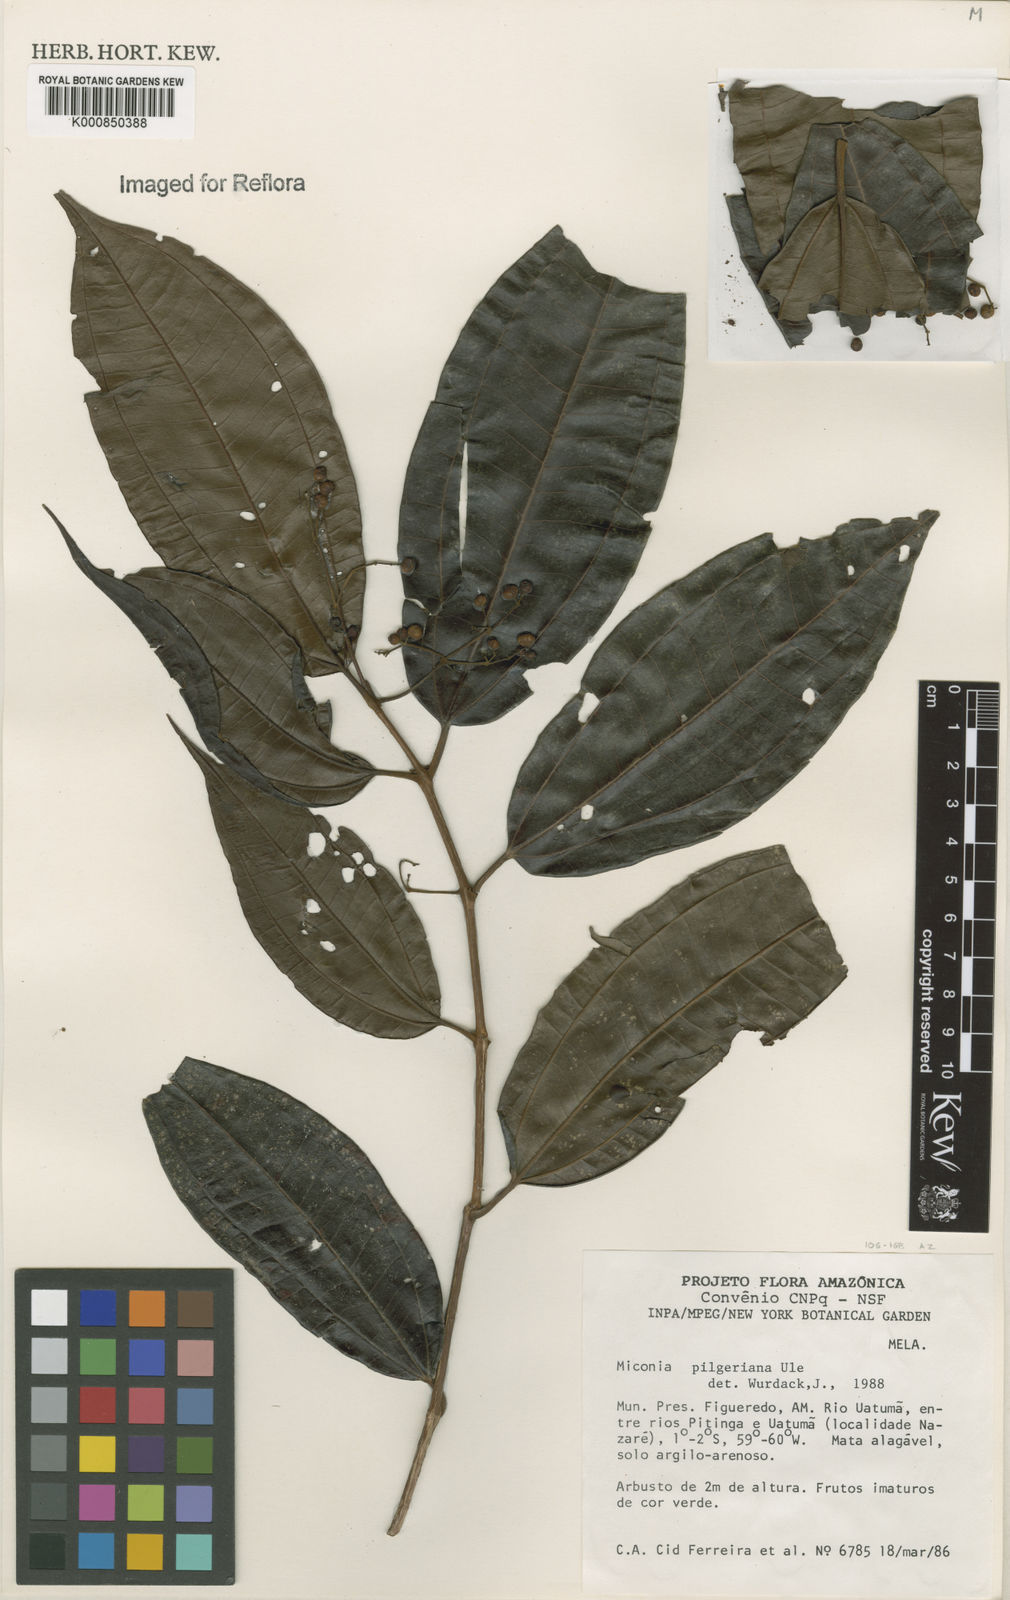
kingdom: Plantae
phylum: Tracheophyta
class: Magnoliopsida
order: Myrtales
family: Melastomataceae
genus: Miconia
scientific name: Miconia dolichorrhyncha
